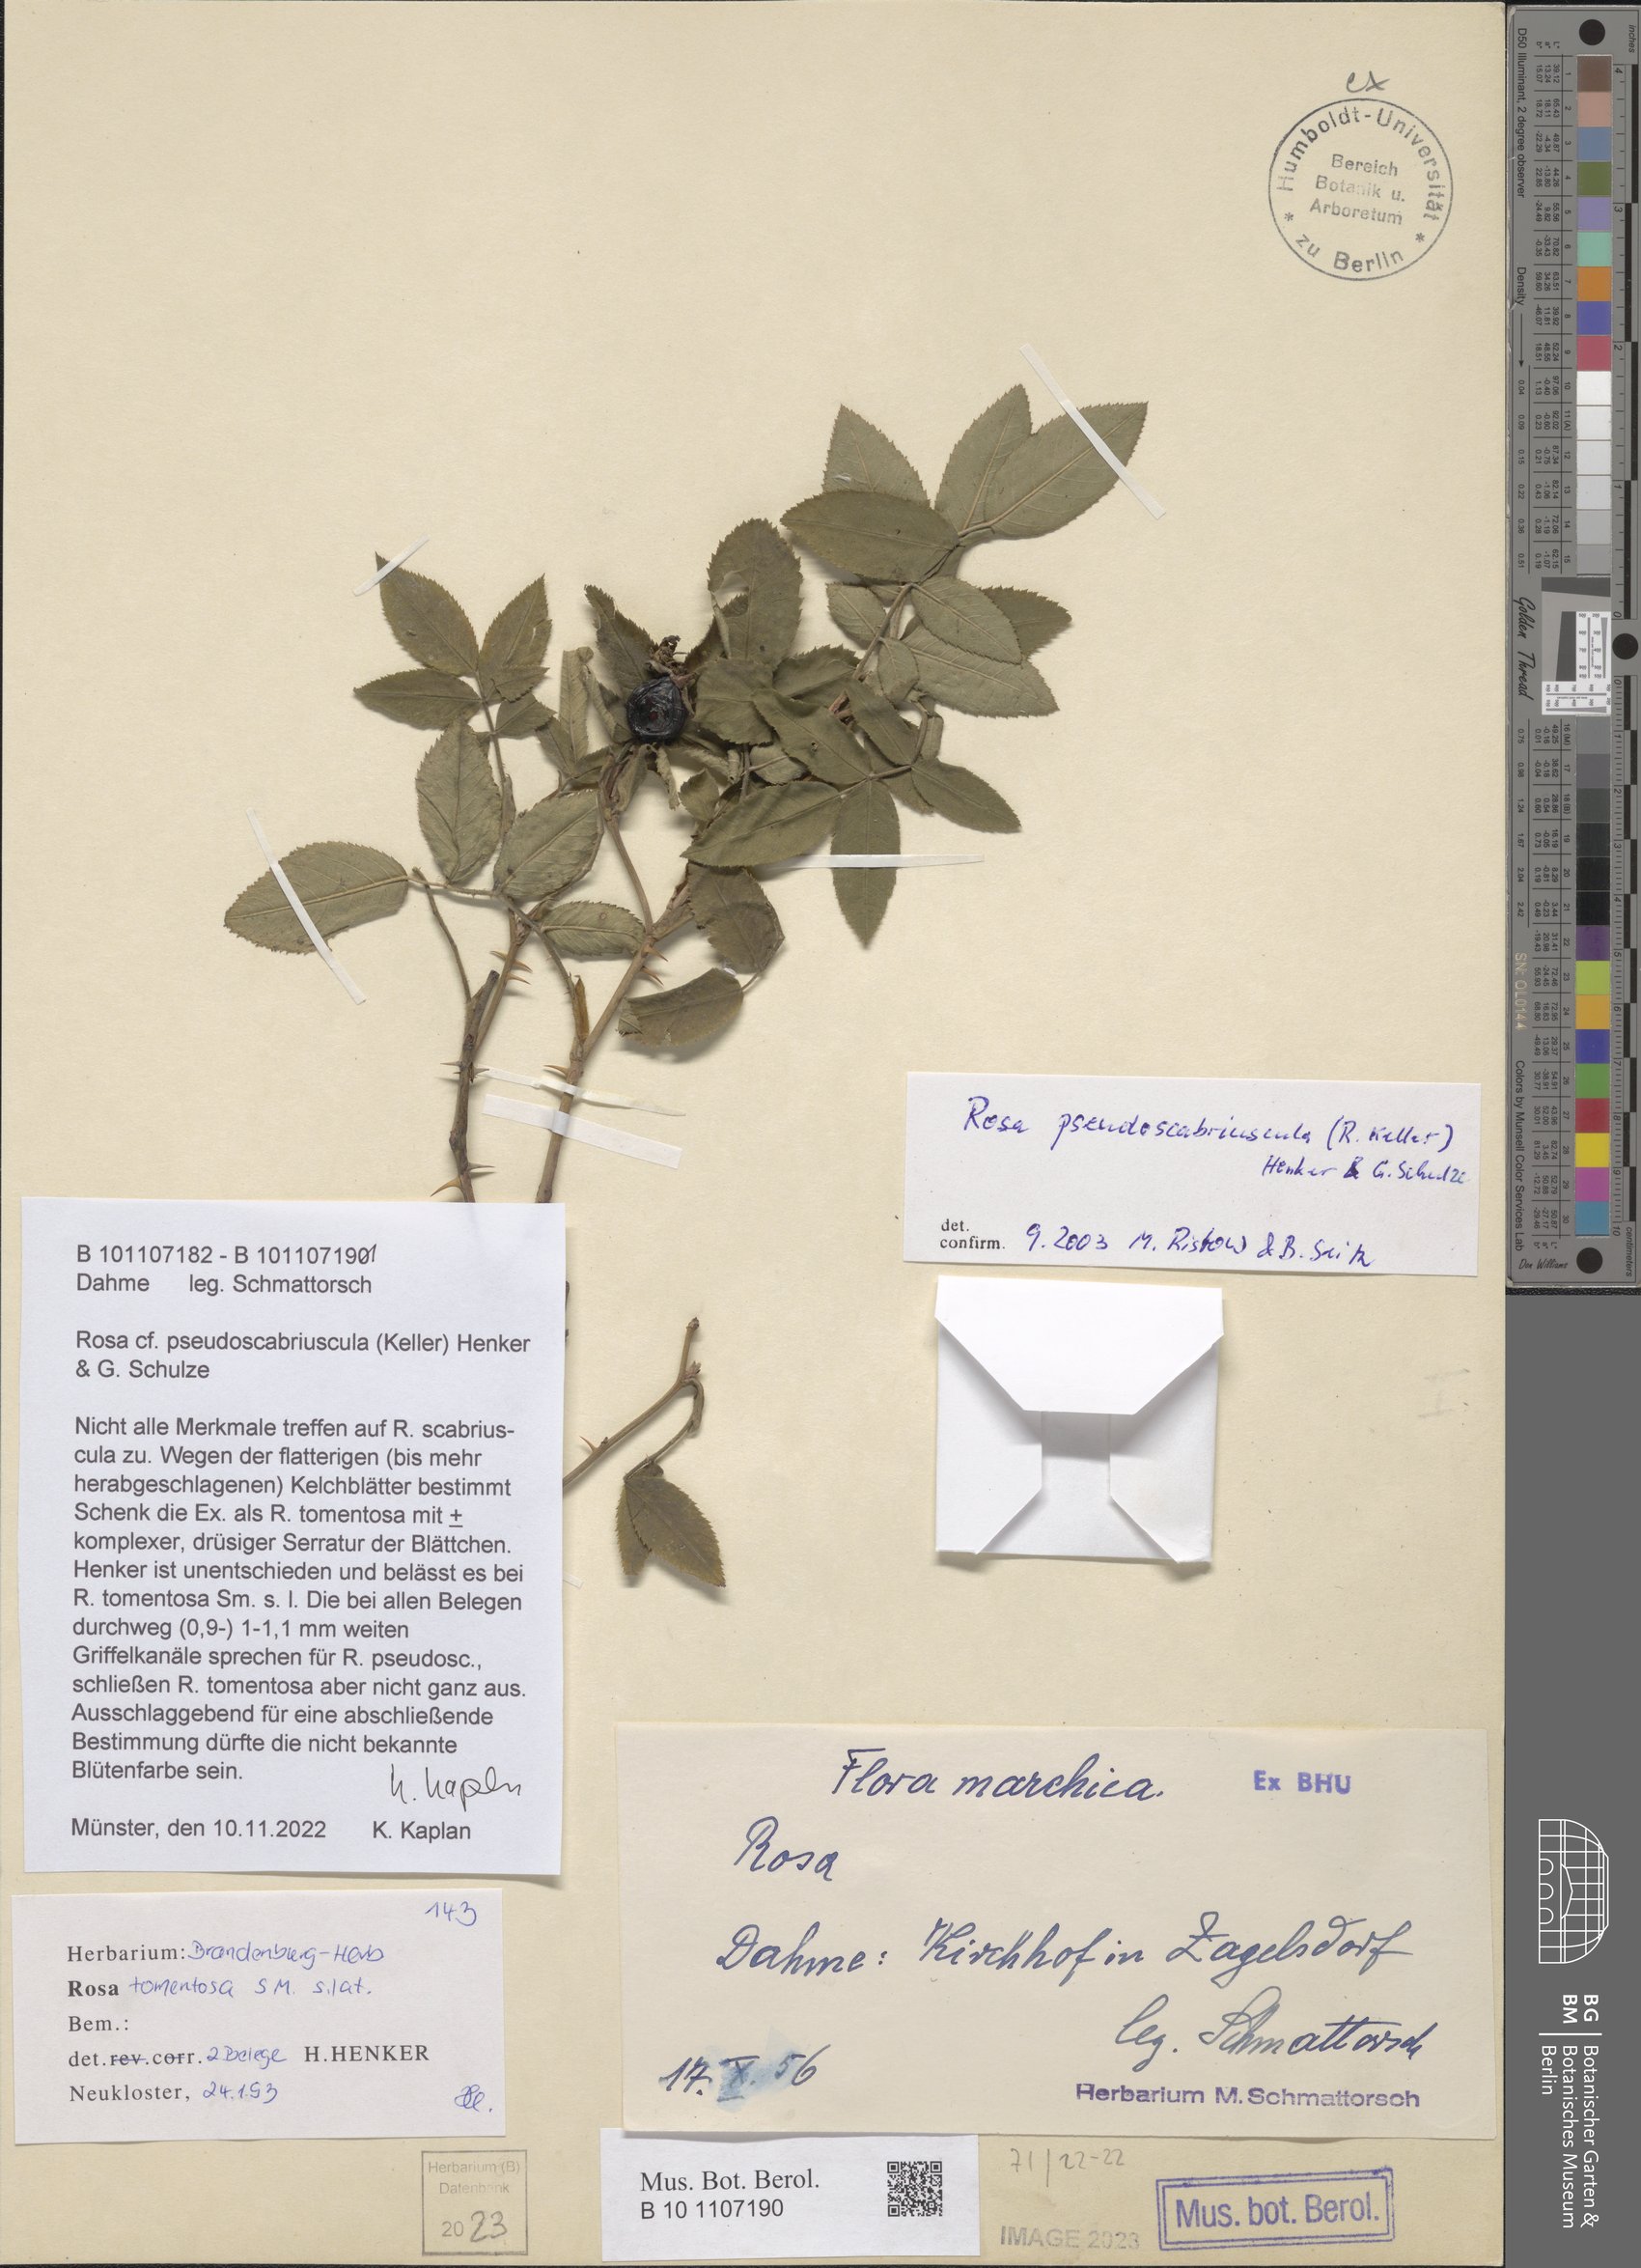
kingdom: Plantae
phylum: Tracheophyta
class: Magnoliopsida
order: Rosales
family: Rosaceae
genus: Rosa
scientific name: Rosa pseudoscabriuscula
